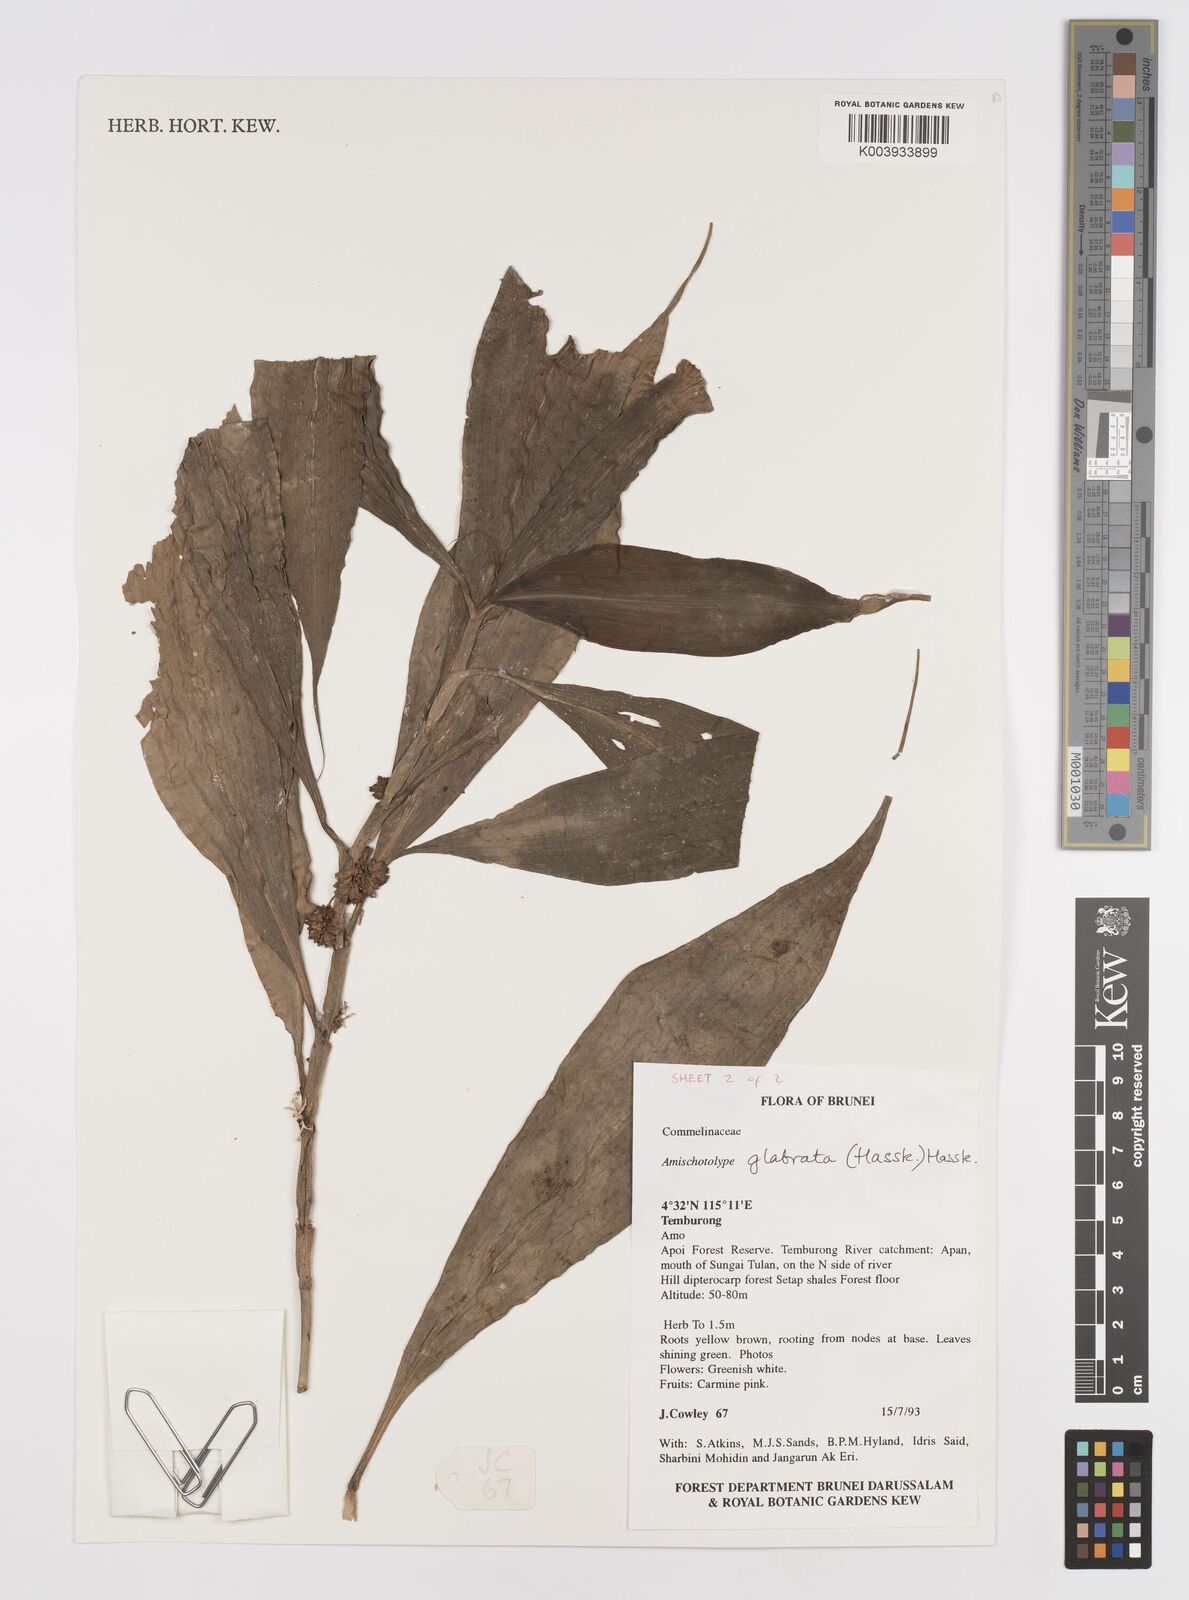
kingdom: Plantae
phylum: Tracheophyta
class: Liliopsida
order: Commelinales
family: Commelinaceae
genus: Amischotolype
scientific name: Amischotolype glabrata
